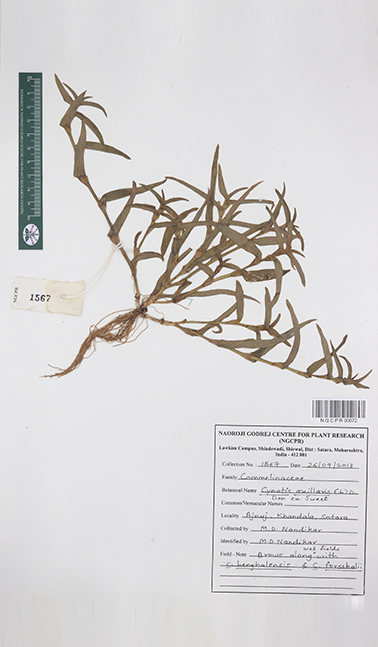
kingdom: Plantae
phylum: Tracheophyta
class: Liliopsida
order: Commelinales
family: Commelinaceae
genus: Cyanotis
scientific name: Cyanotis axillaris
